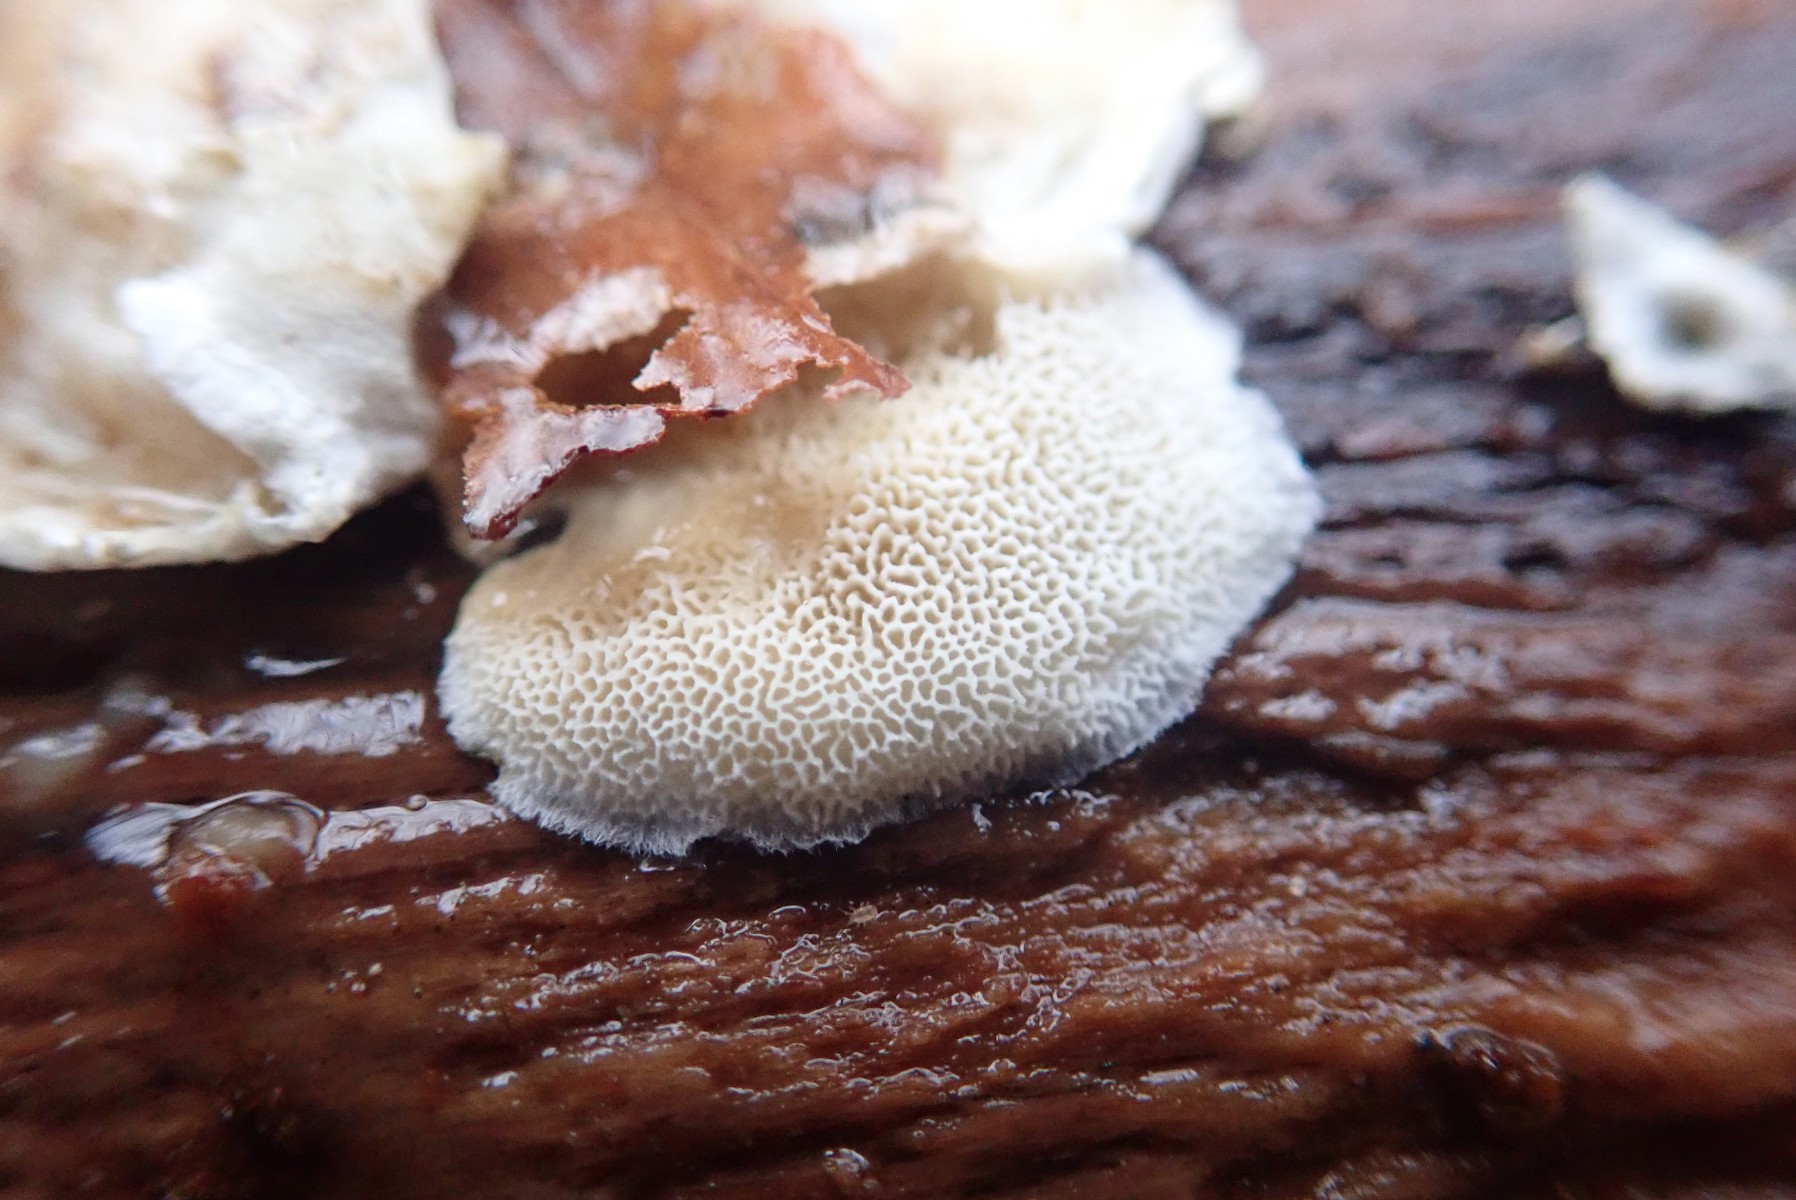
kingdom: Fungi
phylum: Basidiomycota
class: Agaricomycetes
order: Polyporales
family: Polyporaceae
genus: Cyanosporus
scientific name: Cyanosporus alni
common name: blegblå kødporesvamp
